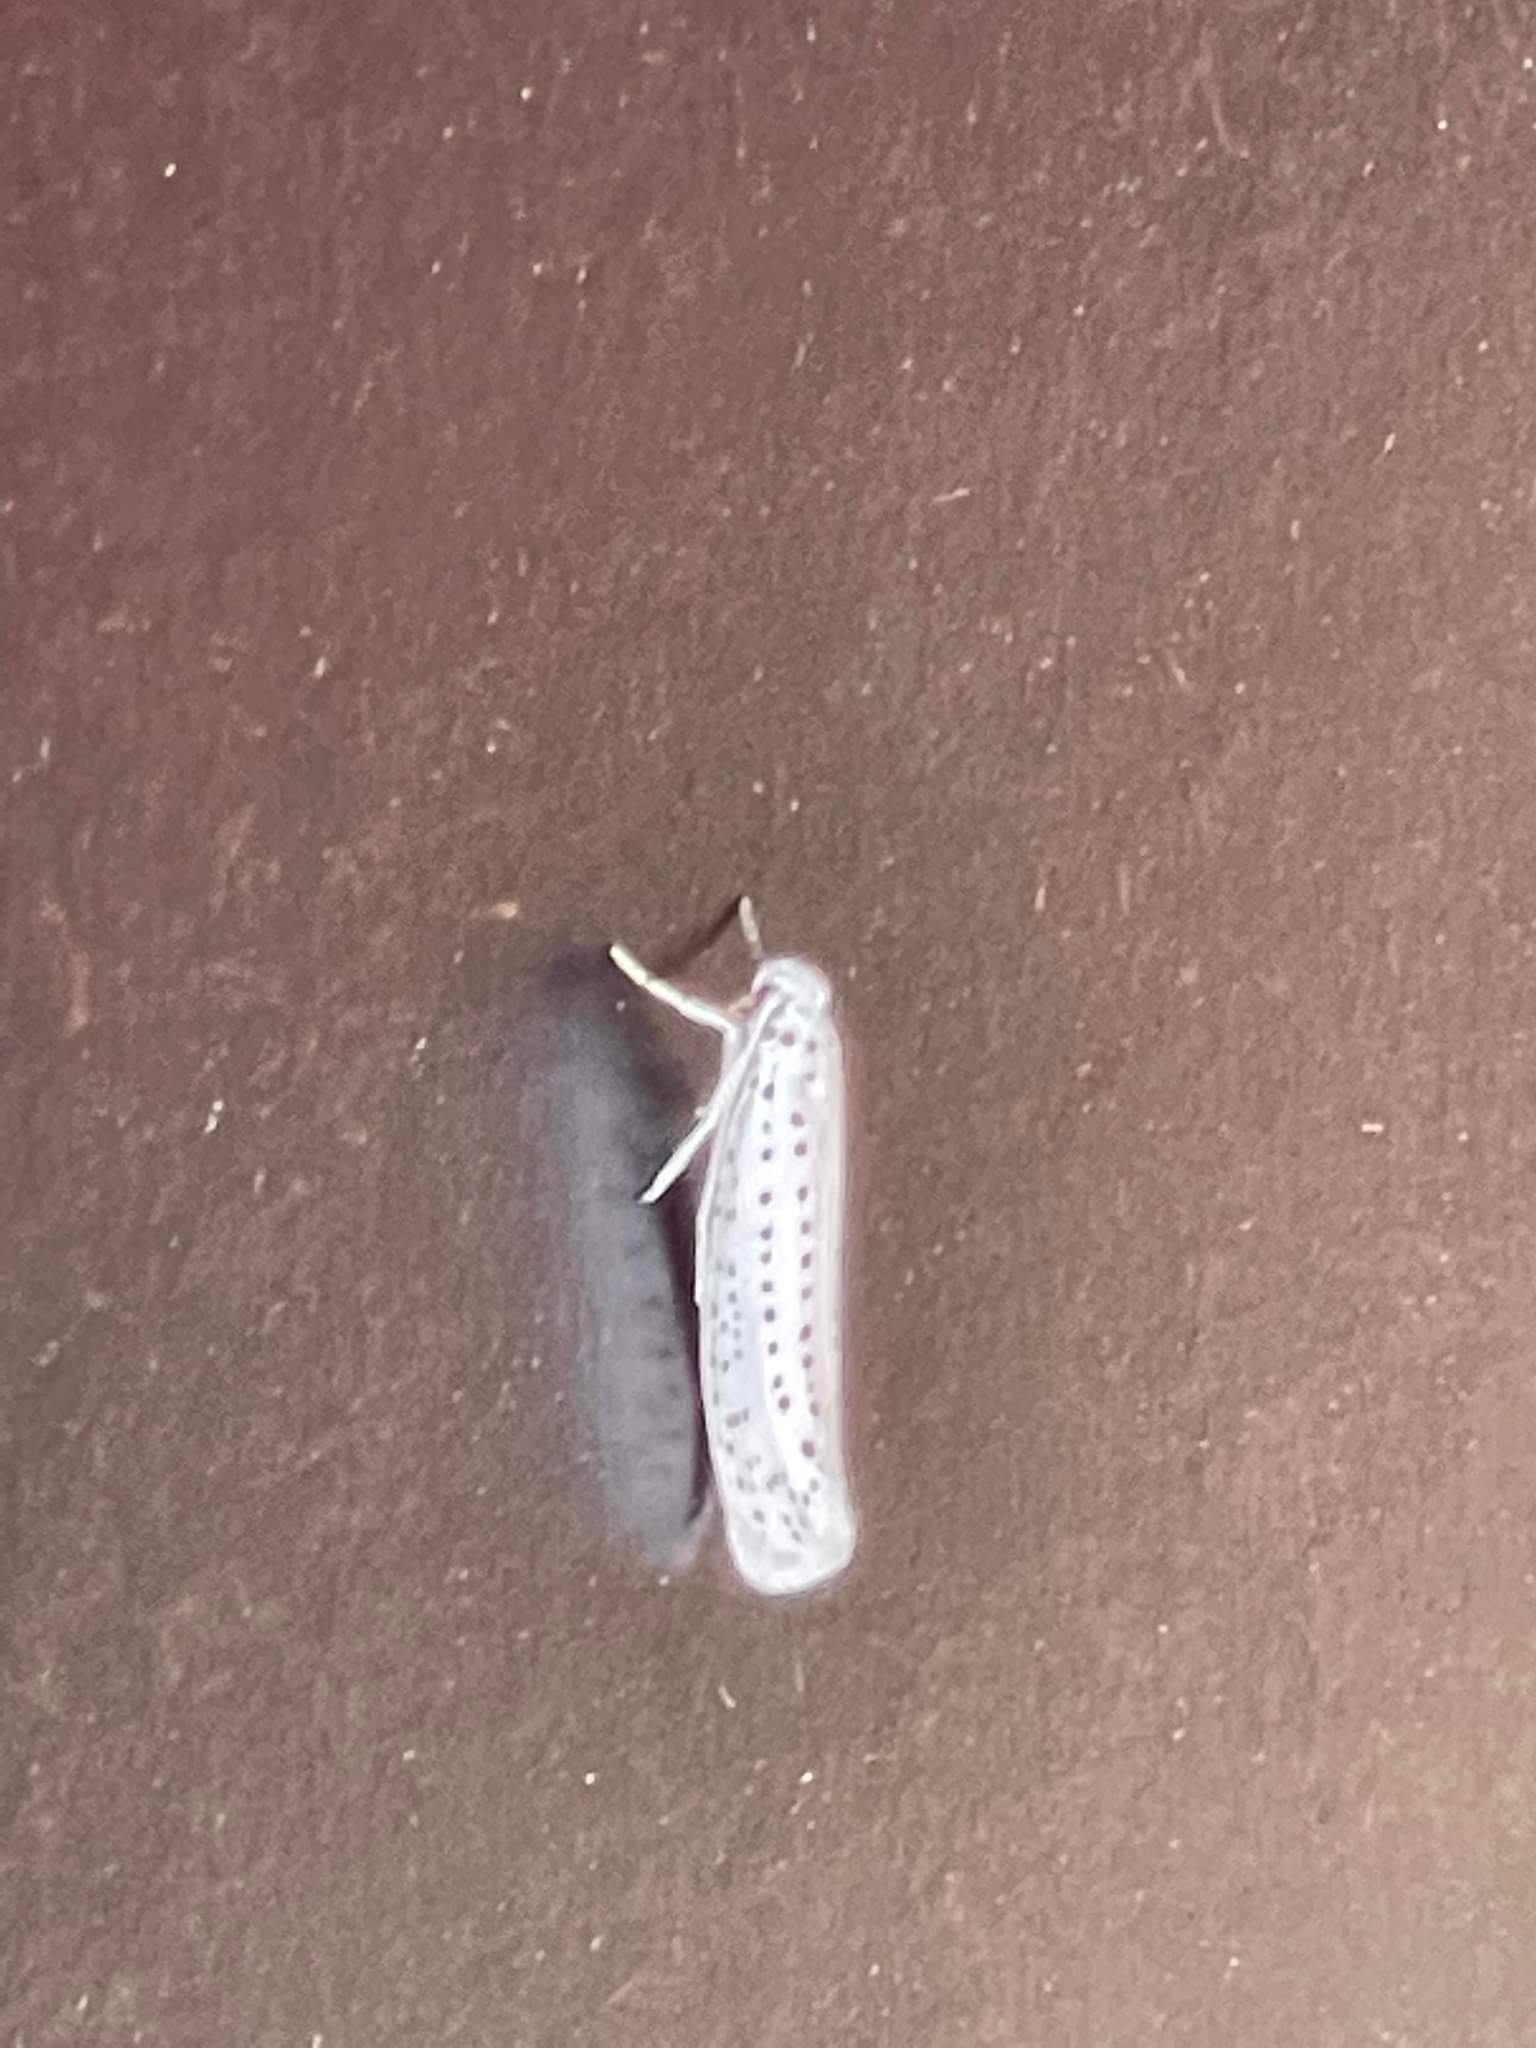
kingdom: Animalia
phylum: Arthropoda
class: Insecta
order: Lepidoptera
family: Yponomeutidae
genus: Yponomeuta
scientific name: Yponomeuta evonymella
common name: Hægspindemøl
